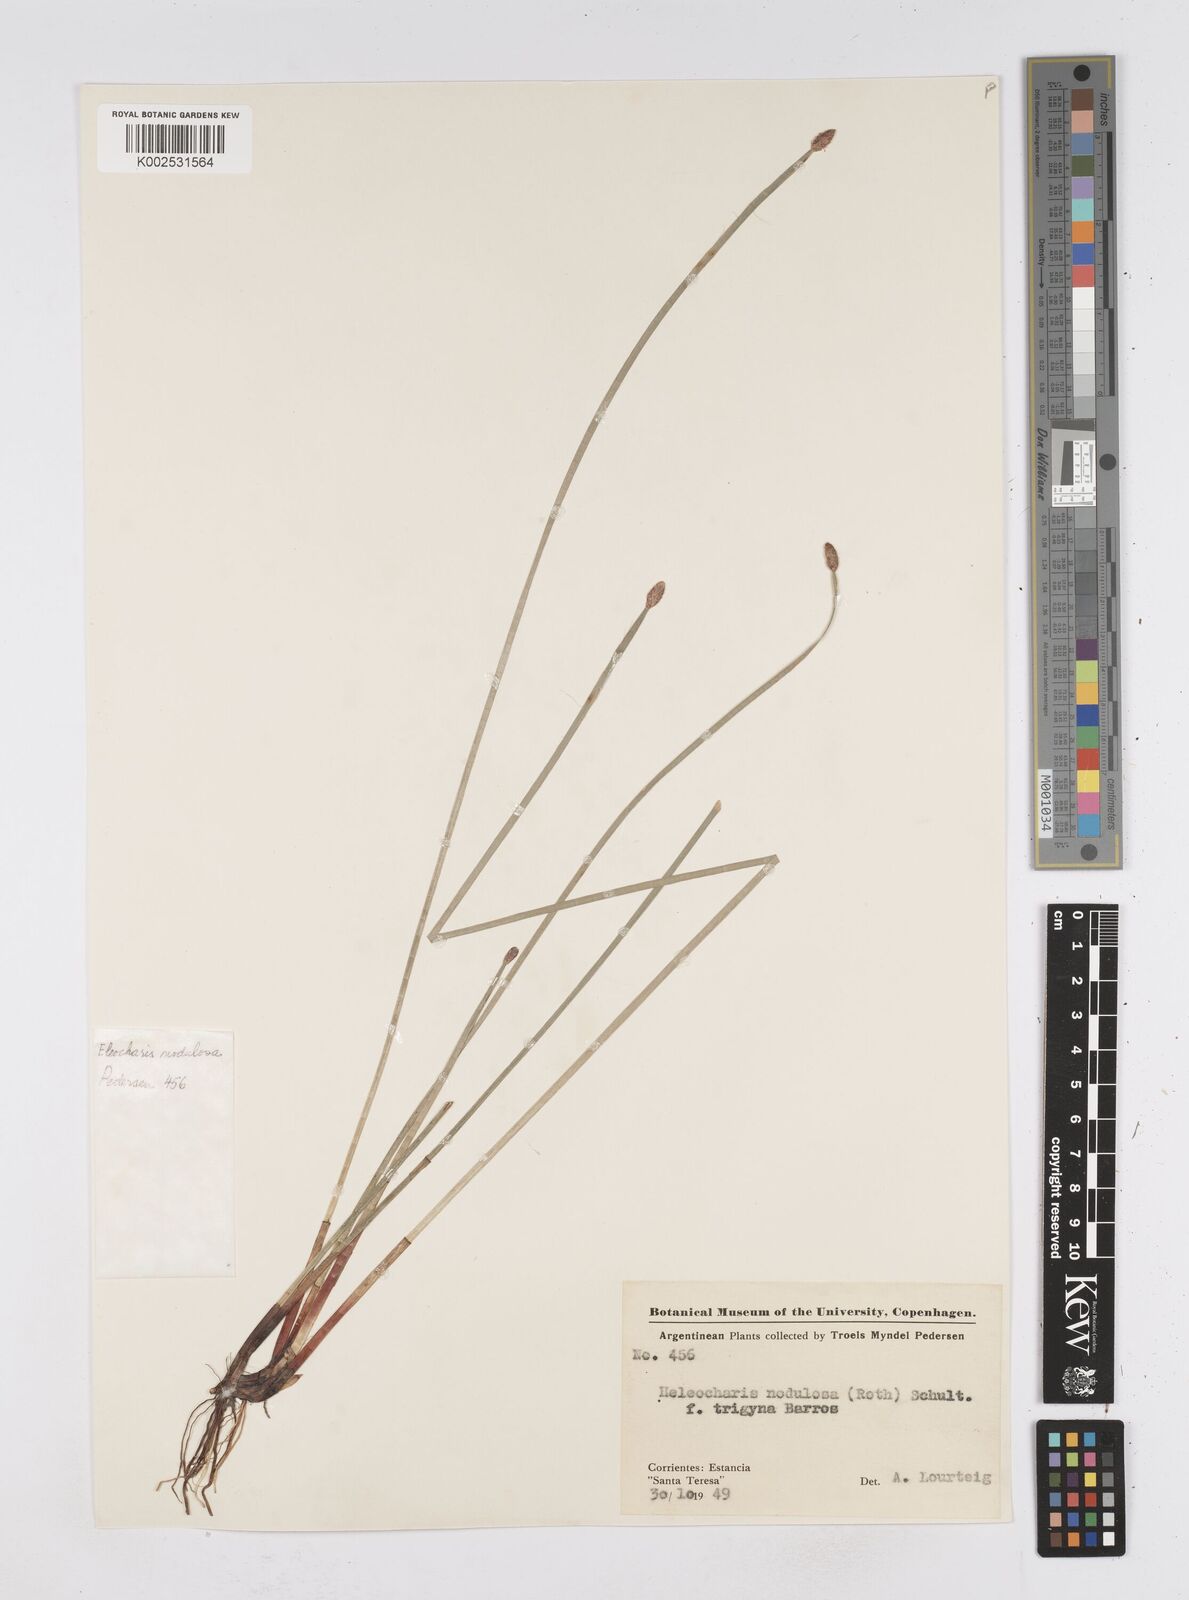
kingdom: Plantae
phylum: Tracheophyta
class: Liliopsida
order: Poales
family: Cyperaceae
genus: Eleocharis
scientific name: Eleocharis montana
